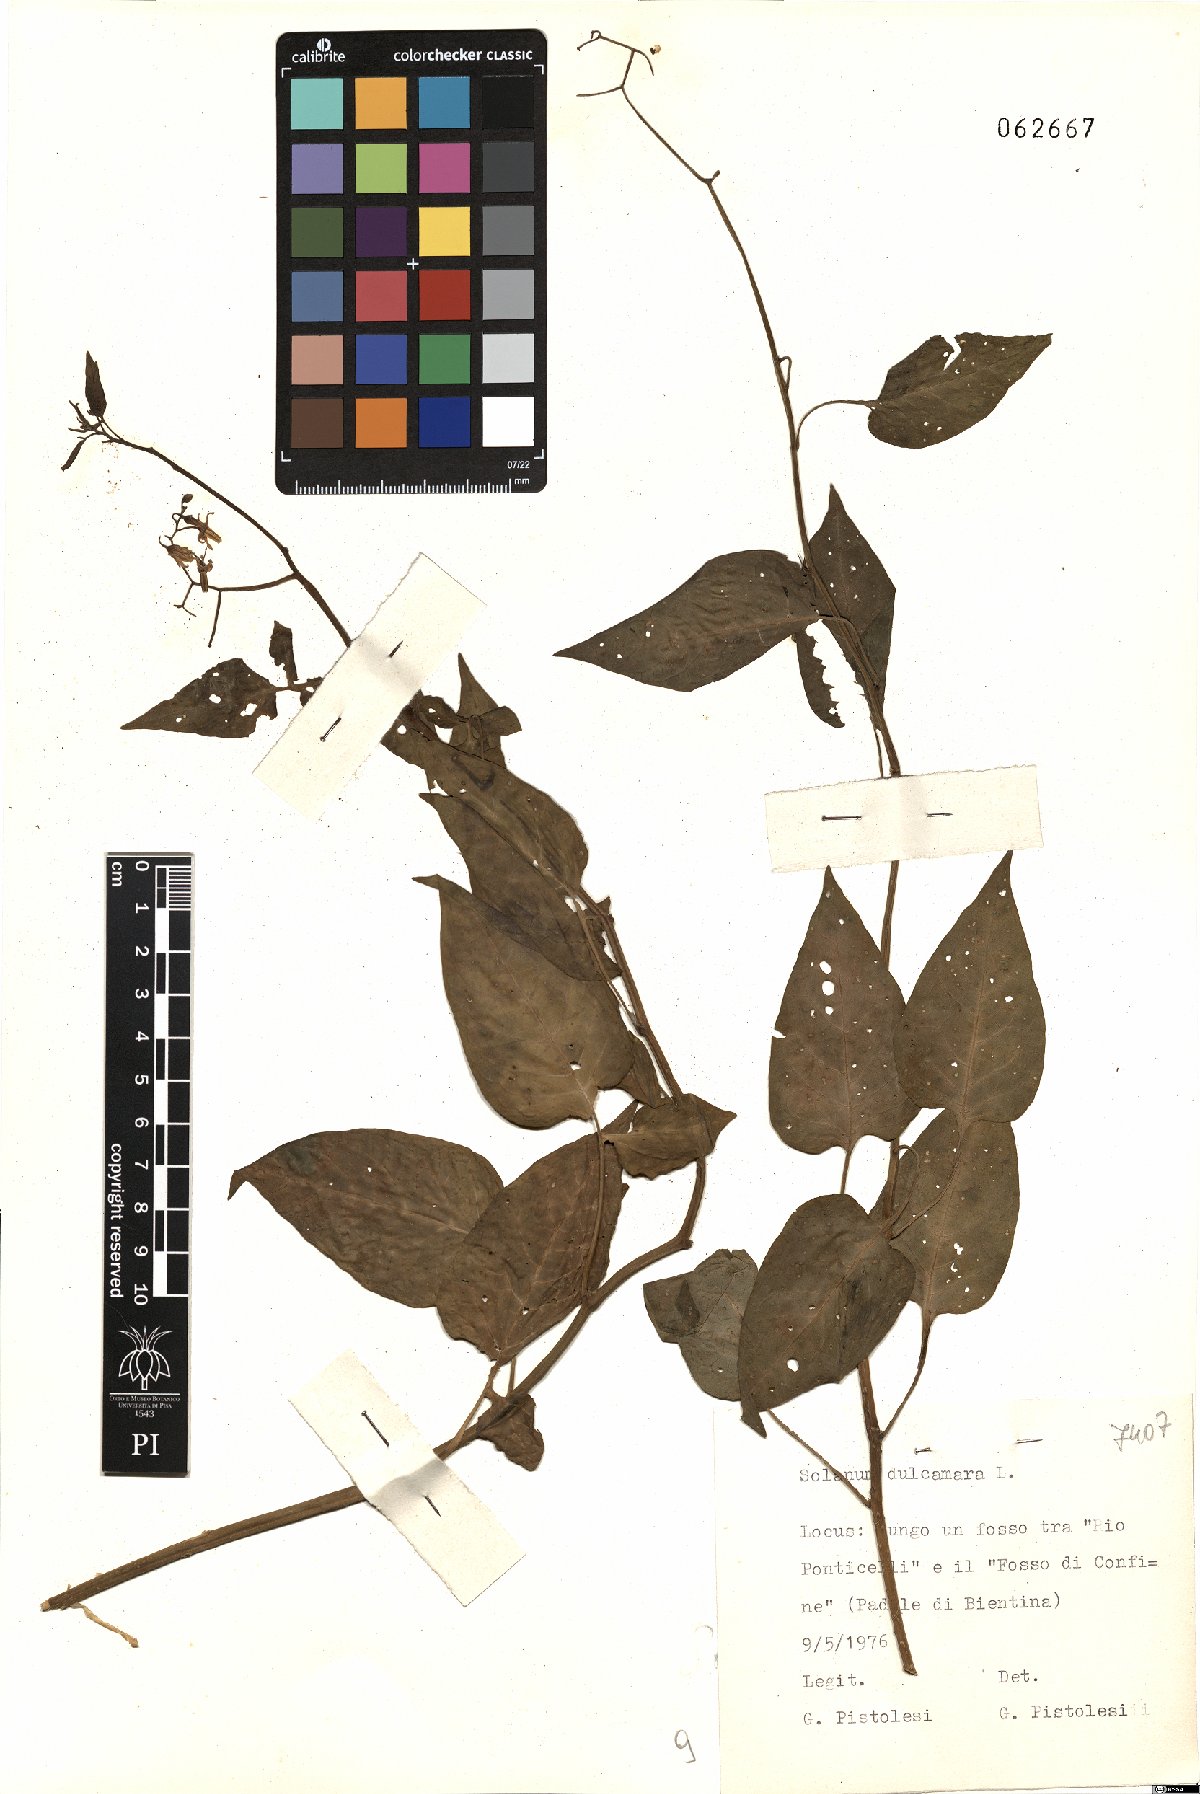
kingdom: Plantae
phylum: Tracheophyta
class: Magnoliopsida
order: Solanales
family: Solanaceae
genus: Solanum
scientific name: Solanum dulcamara
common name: Climbing nightshade
